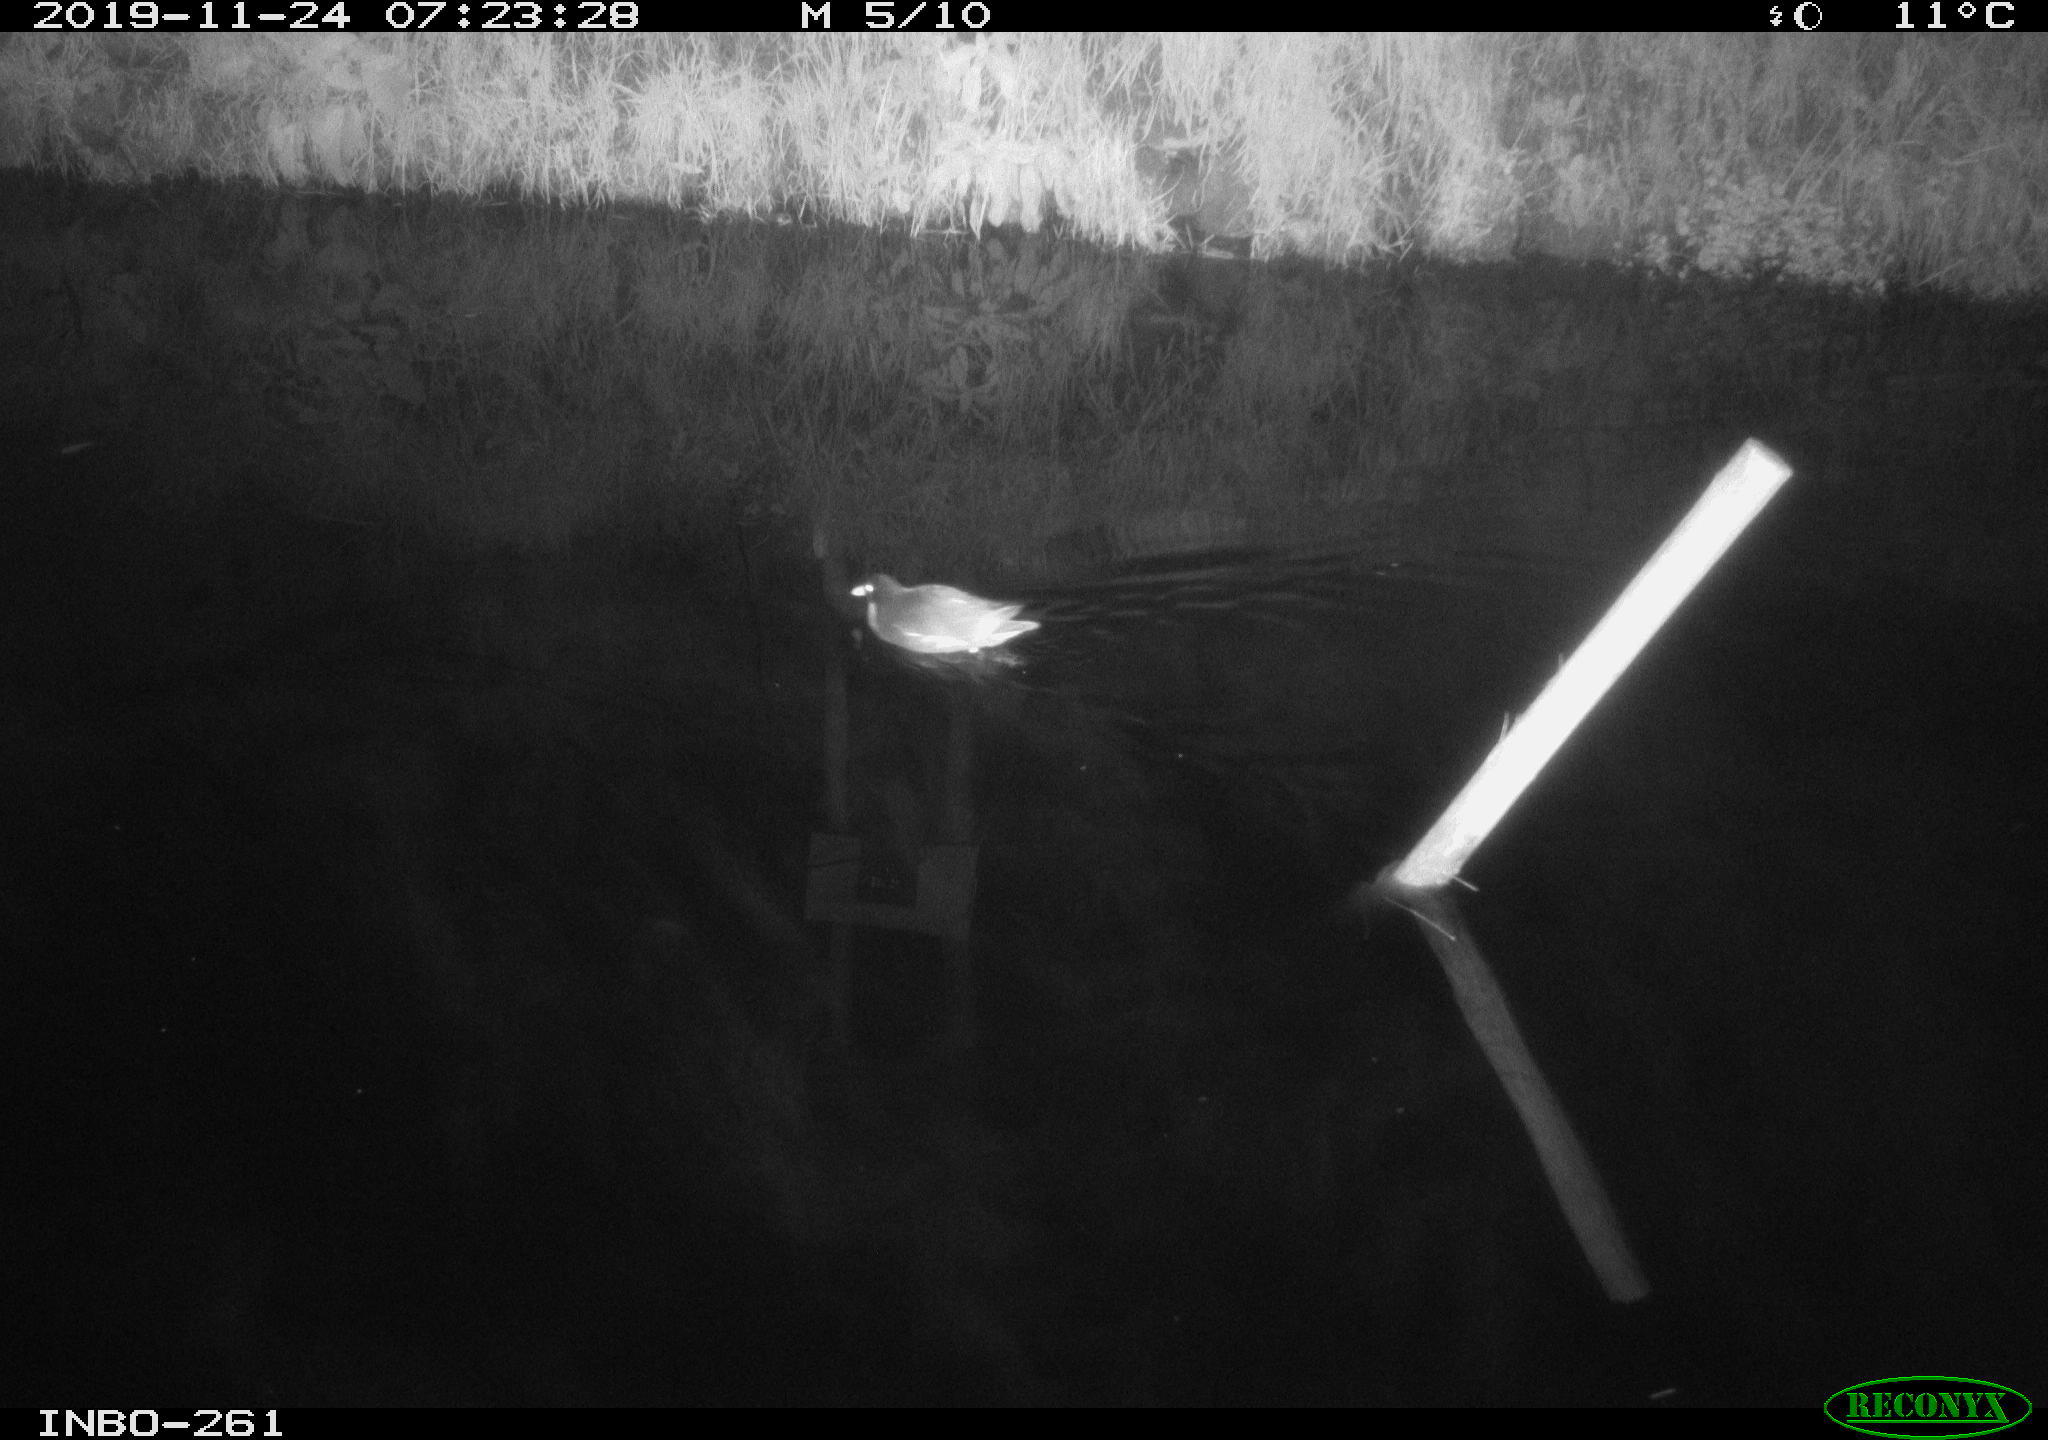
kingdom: Animalia
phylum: Chordata
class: Aves
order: Gruiformes
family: Rallidae
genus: Gallinula
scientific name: Gallinula chloropus
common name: Common moorhen
